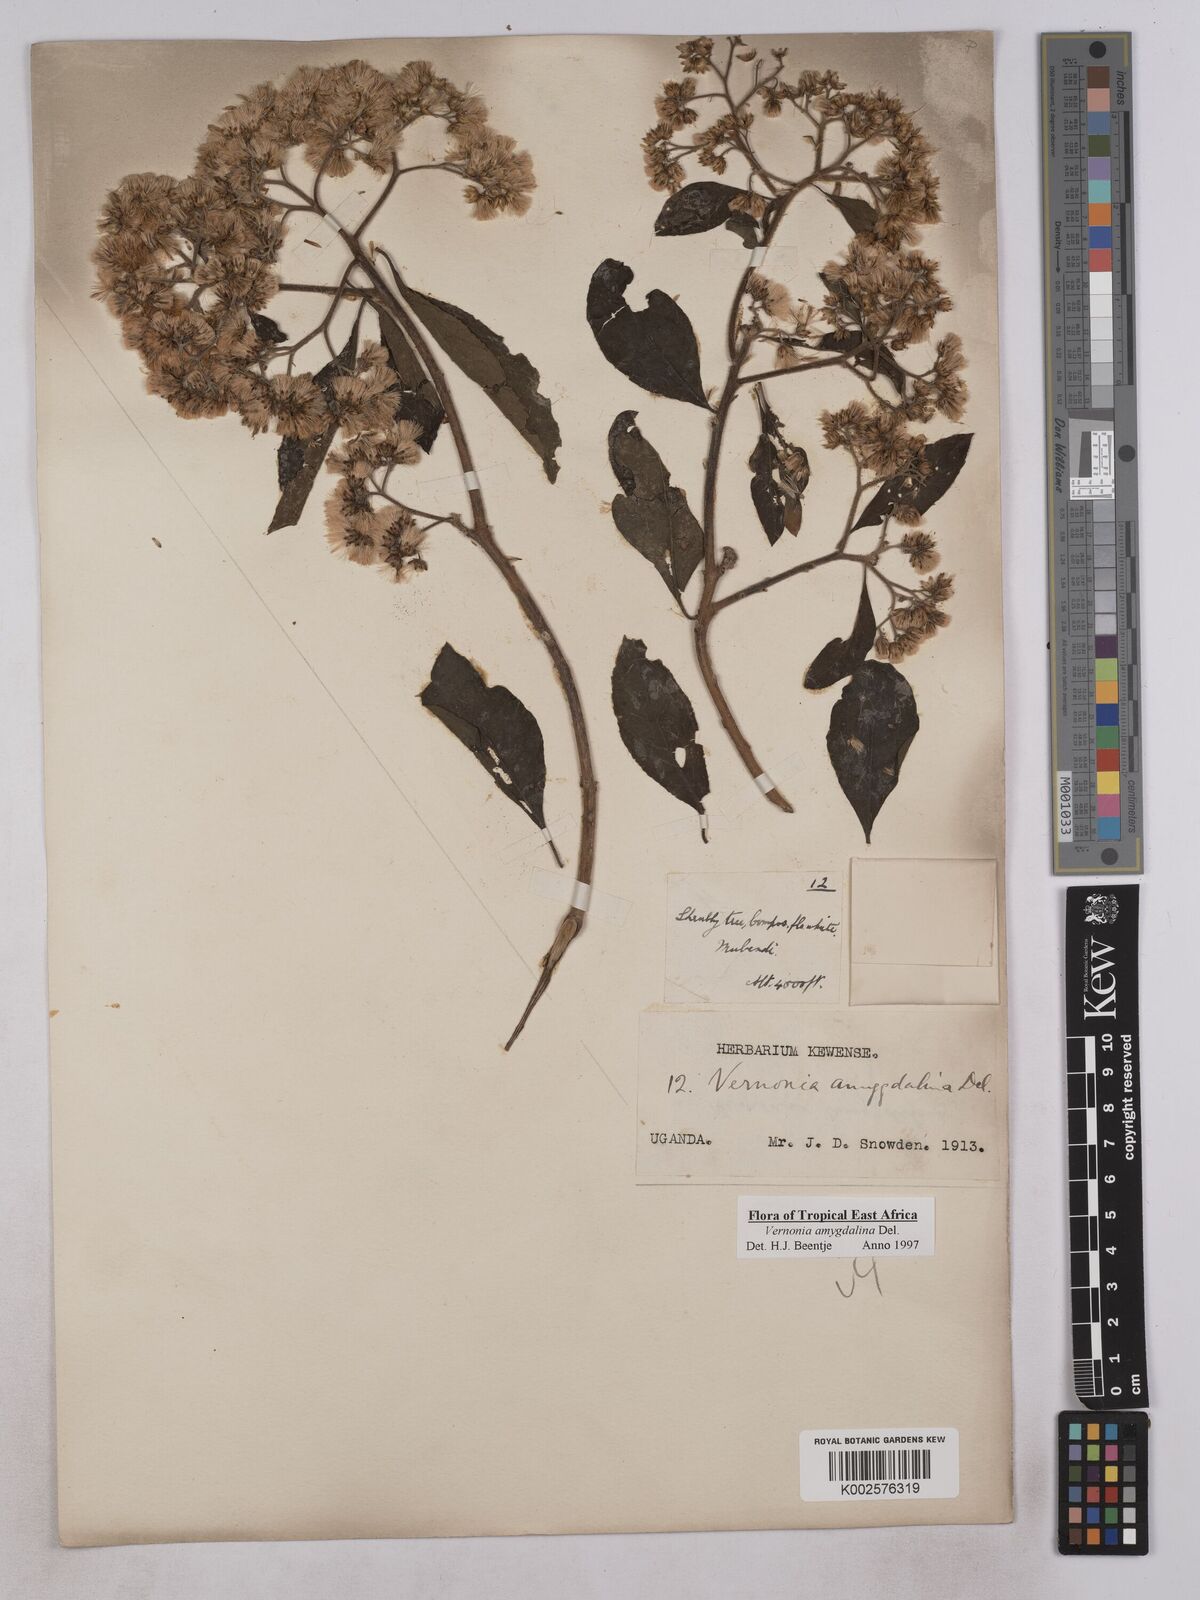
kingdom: Plantae
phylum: Tracheophyta
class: Magnoliopsida
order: Asterales
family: Asteraceae
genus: Gymnanthemum
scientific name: Gymnanthemum amygdalinum
